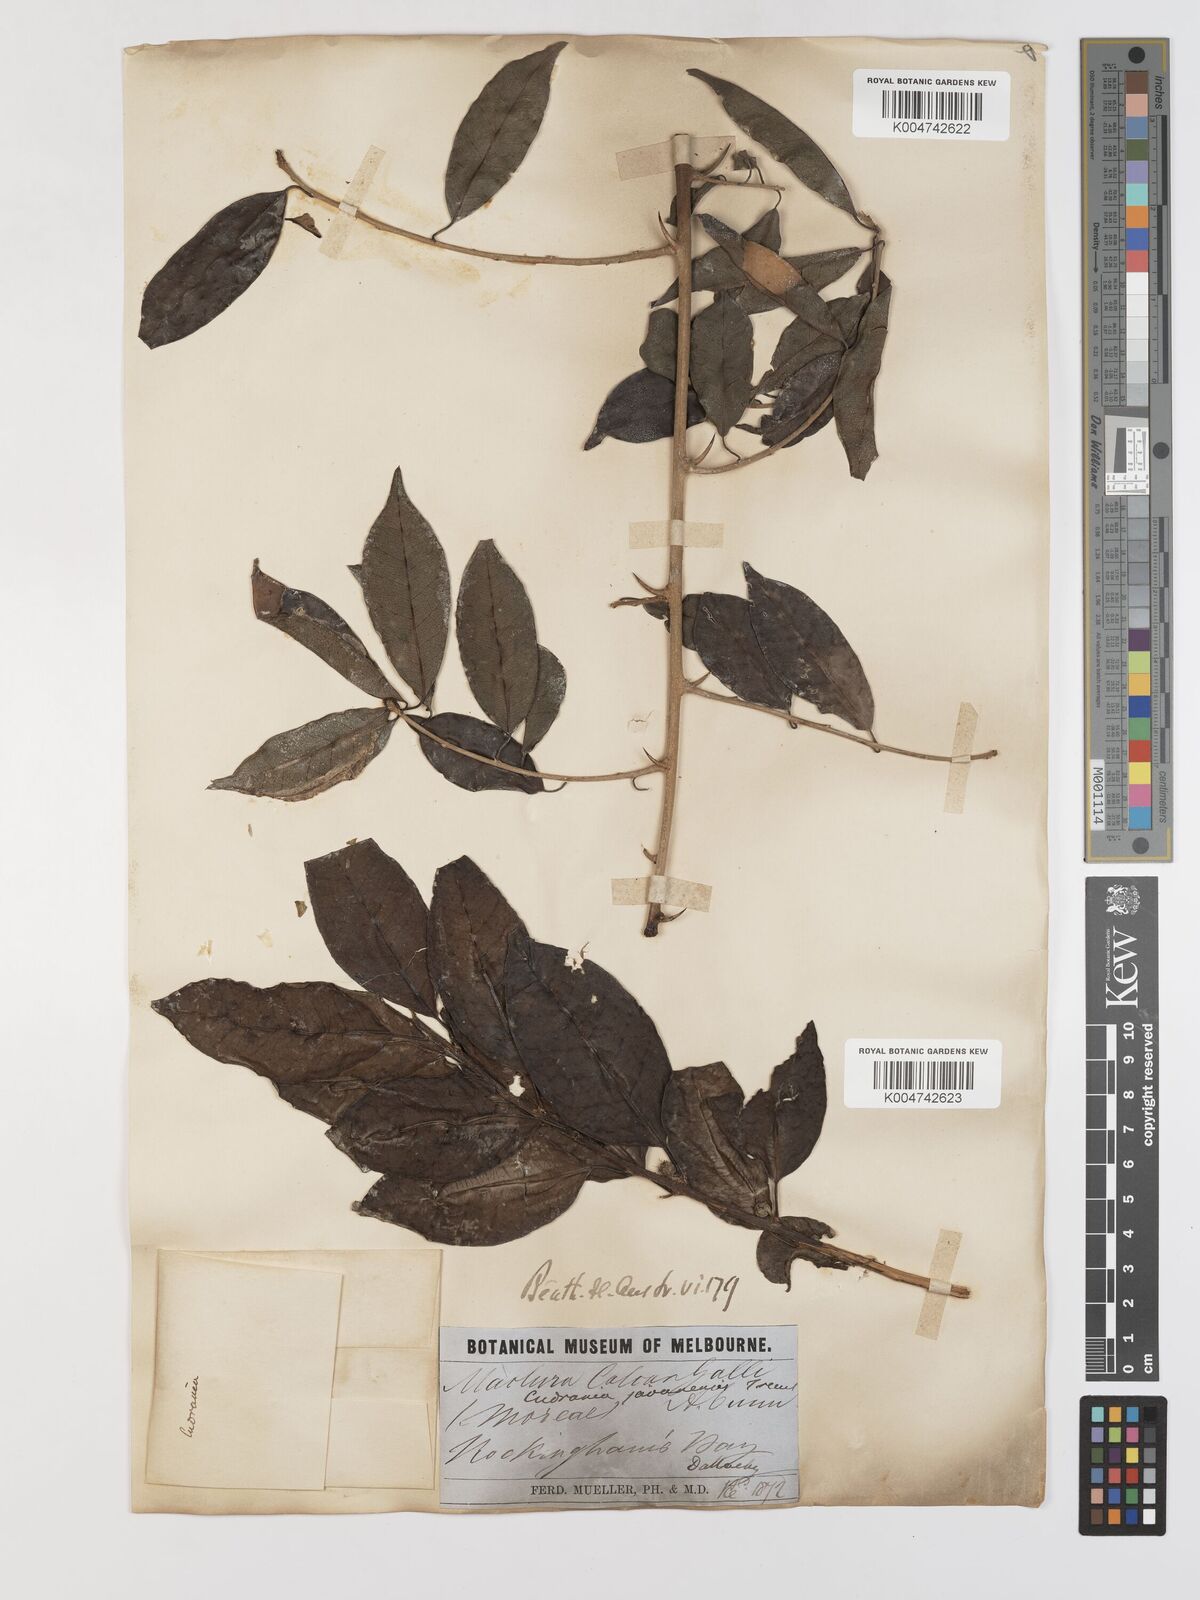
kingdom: Plantae
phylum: Tracheophyta
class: Magnoliopsida
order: Rosales
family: Moraceae
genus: Maclura
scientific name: Maclura cochinchinensis
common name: Cockspurthorn
